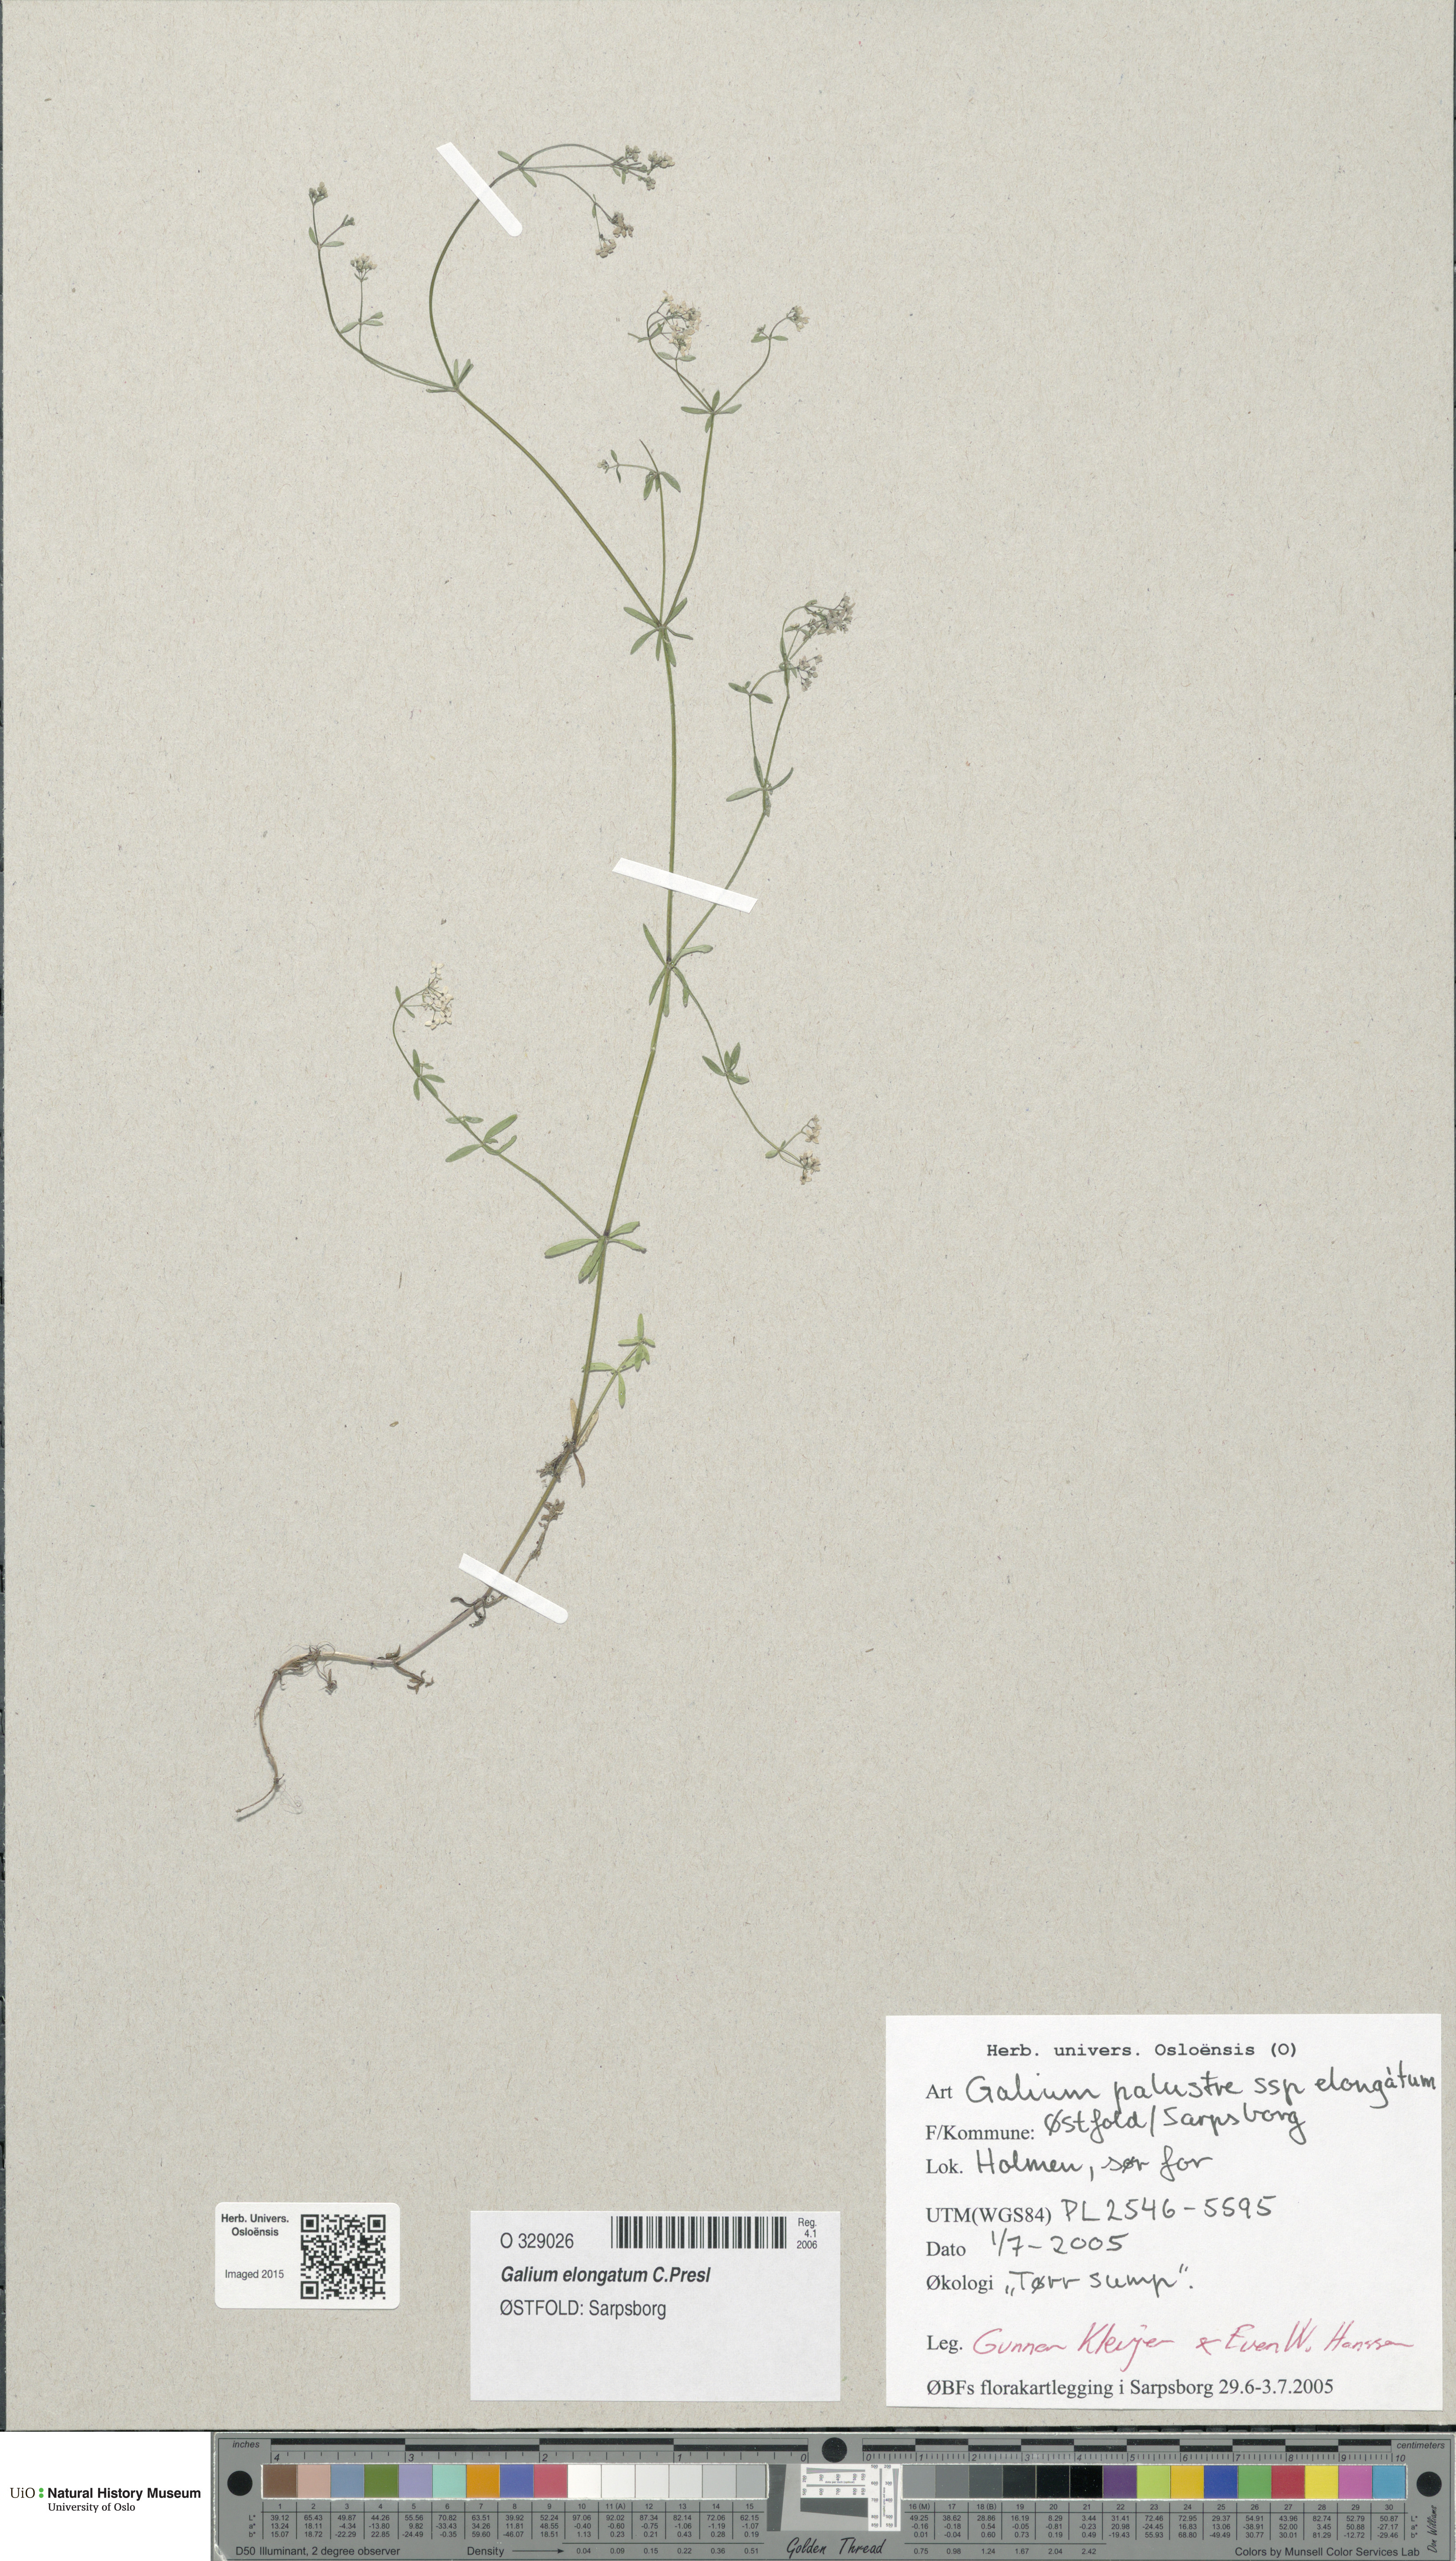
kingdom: Plantae
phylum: Tracheophyta
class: Magnoliopsida
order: Gentianales
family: Rubiaceae
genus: Galium
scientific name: Galium elongatum
